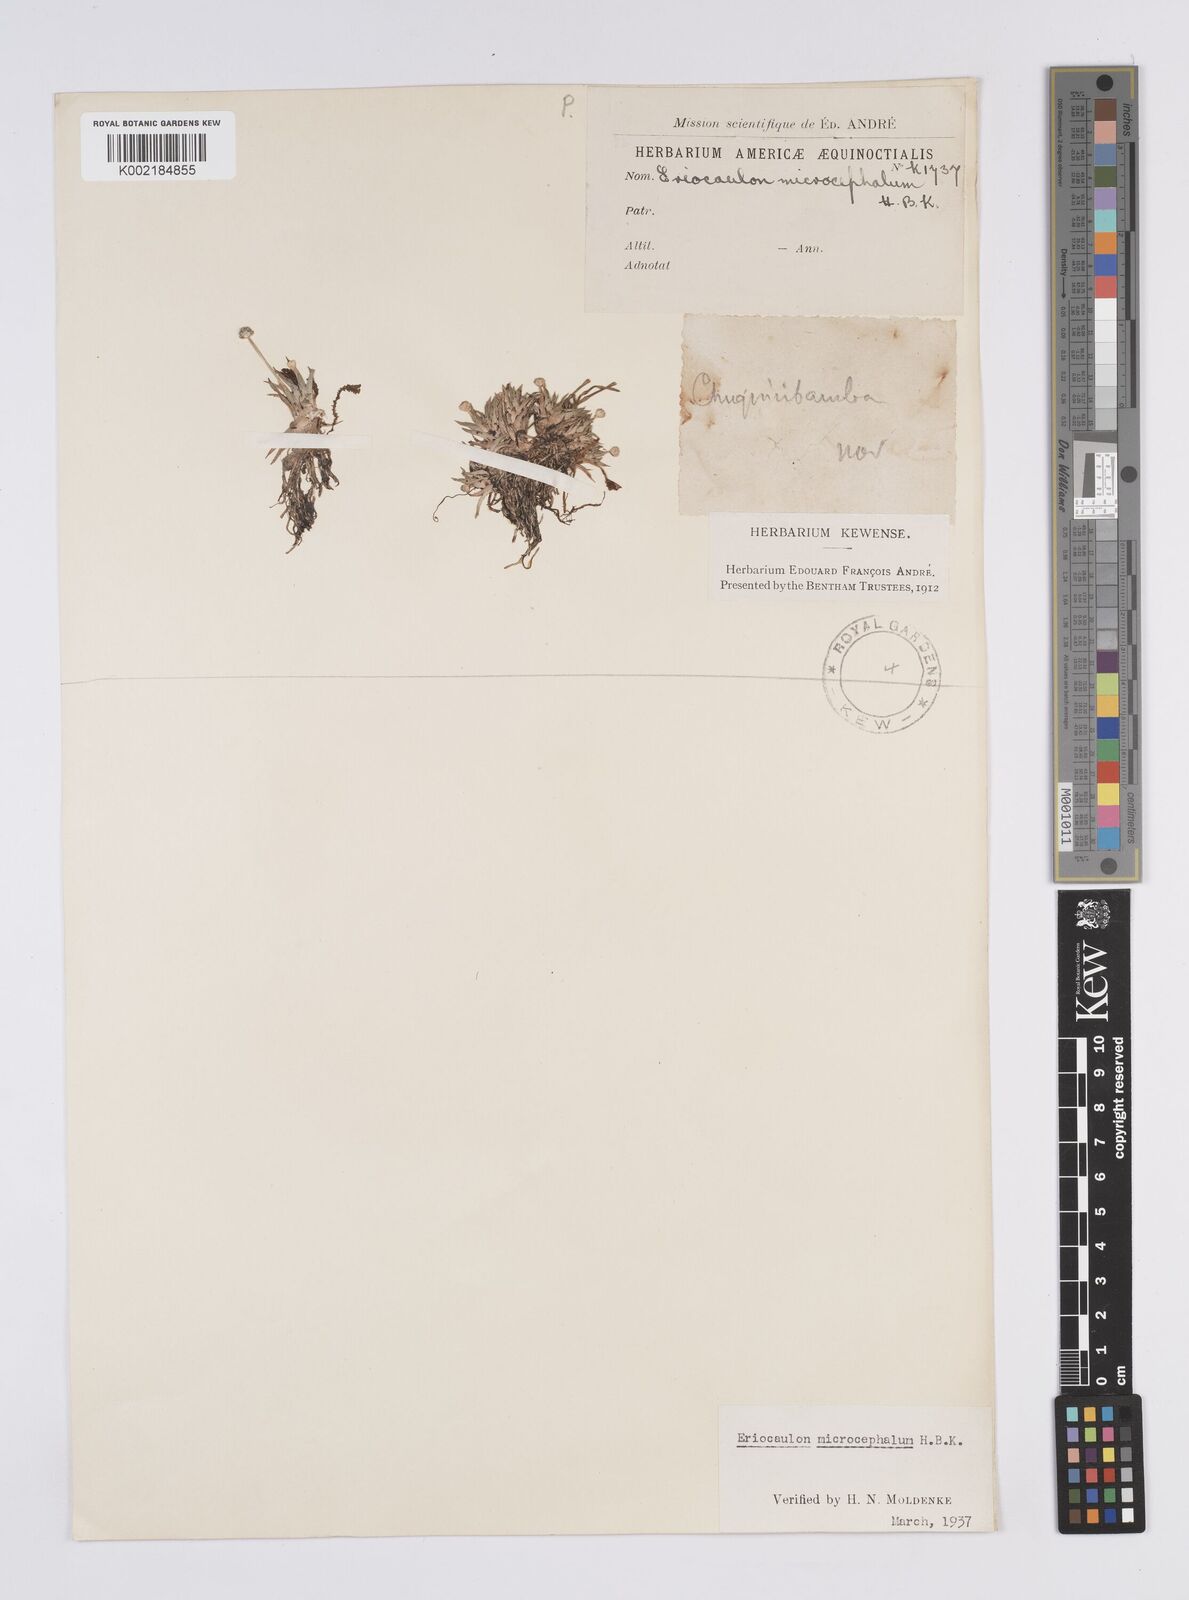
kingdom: Plantae
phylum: Tracheophyta
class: Liliopsida
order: Poales
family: Eriocaulaceae
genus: Eriocaulon
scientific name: Eriocaulon benthamii
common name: Bentham's pipewort
